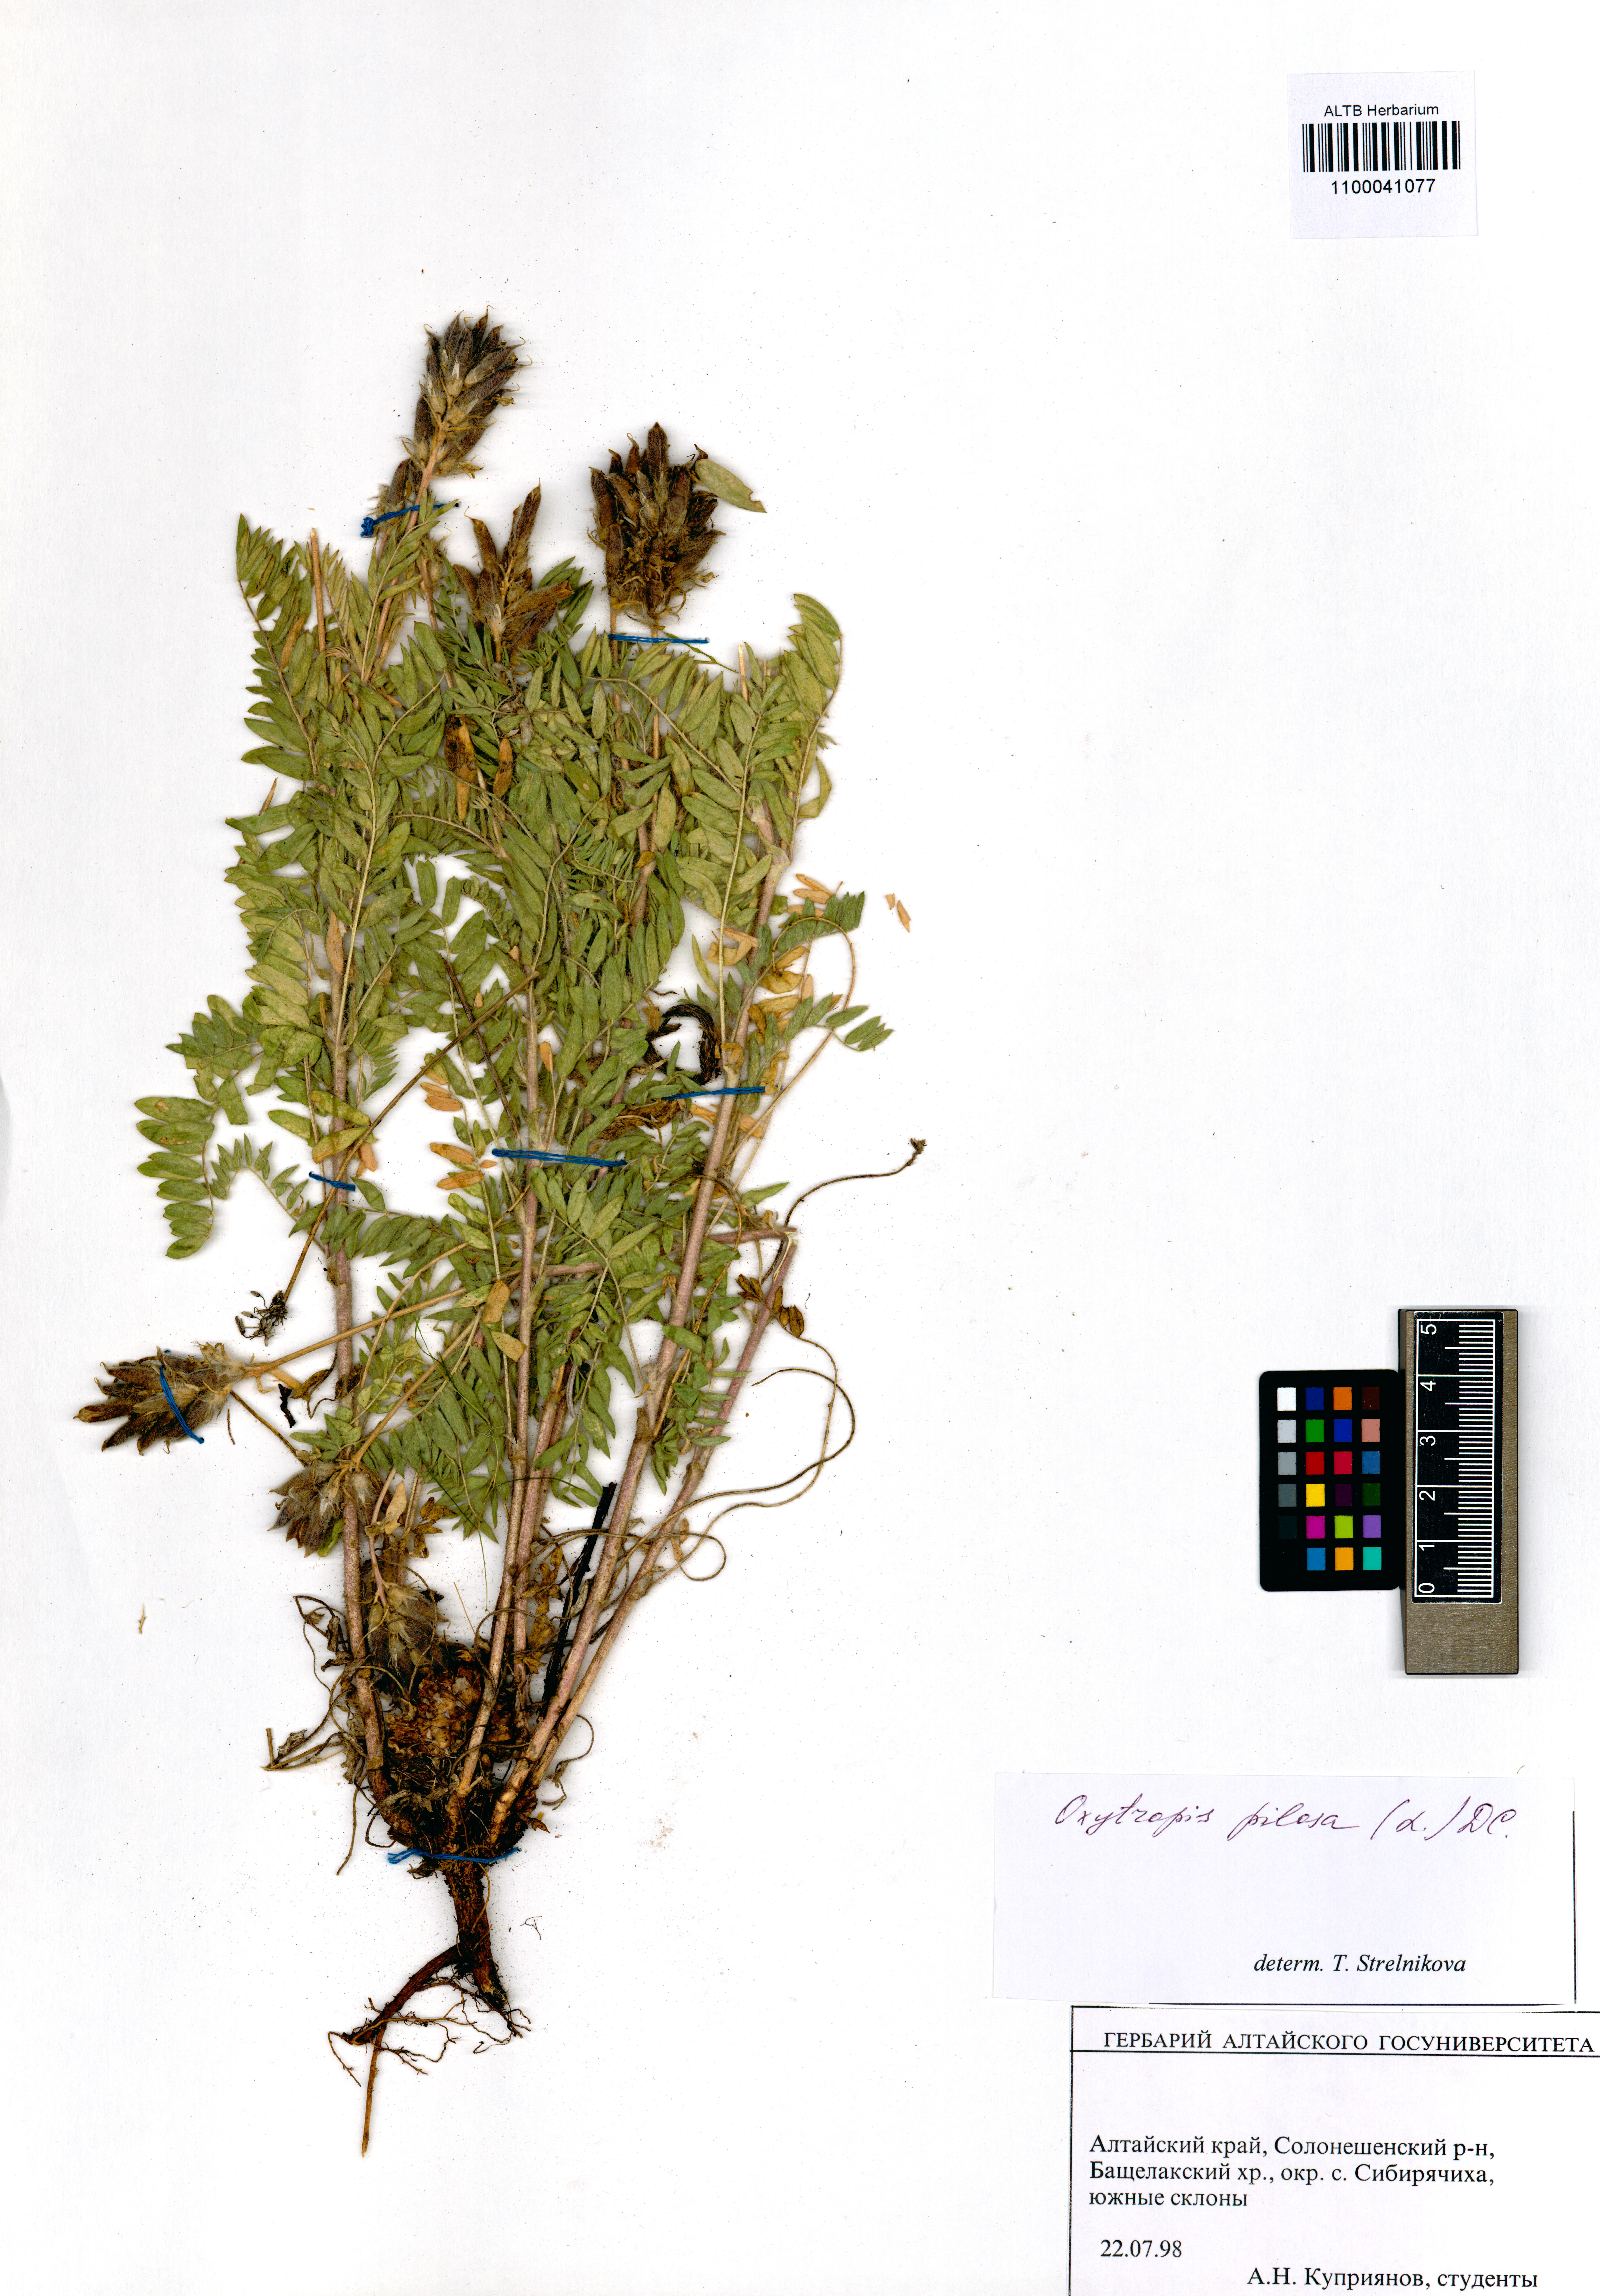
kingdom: Plantae
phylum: Tracheophyta
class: Magnoliopsida
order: Fabales
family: Fabaceae
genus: Oxytropis
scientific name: Oxytropis pilosa
